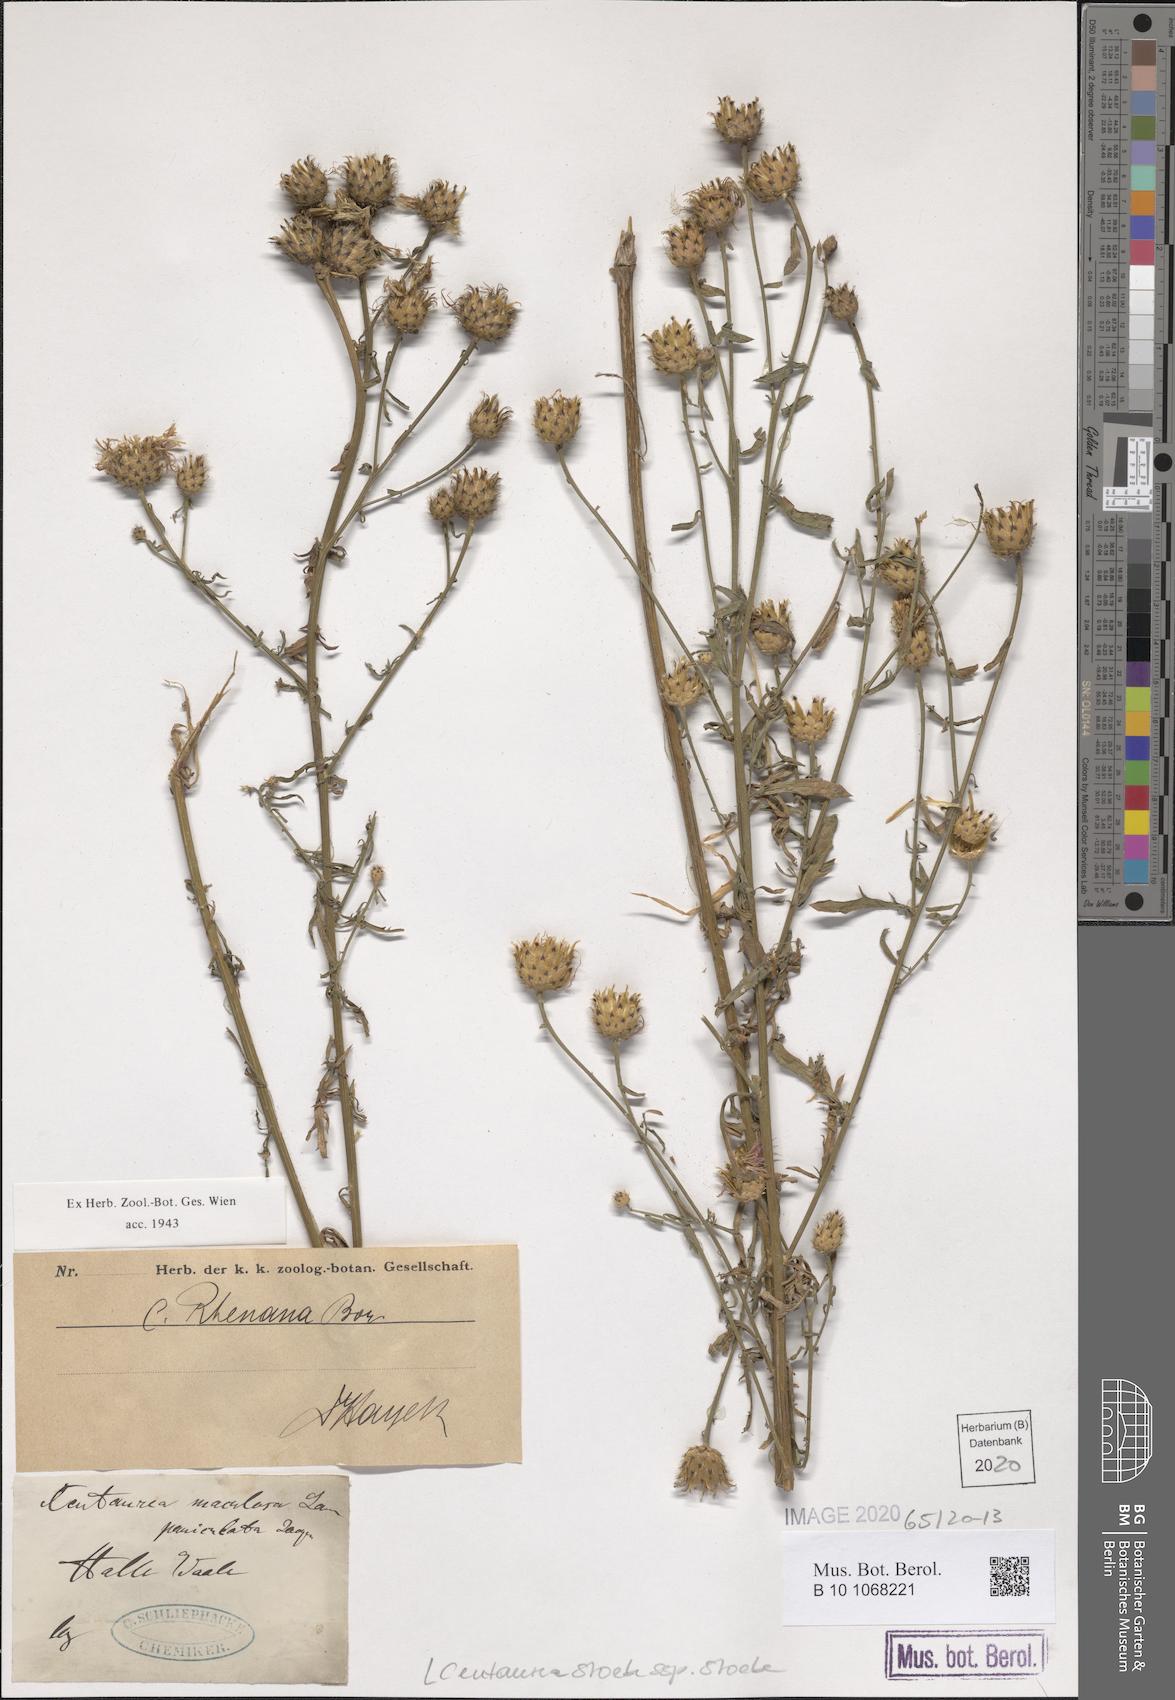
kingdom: Plantae
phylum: Tracheophyta
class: Magnoliopsida
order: Asterales
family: Asteraceae
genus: Centaurea
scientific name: Centaurea stoebe
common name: Spotted knapweed
